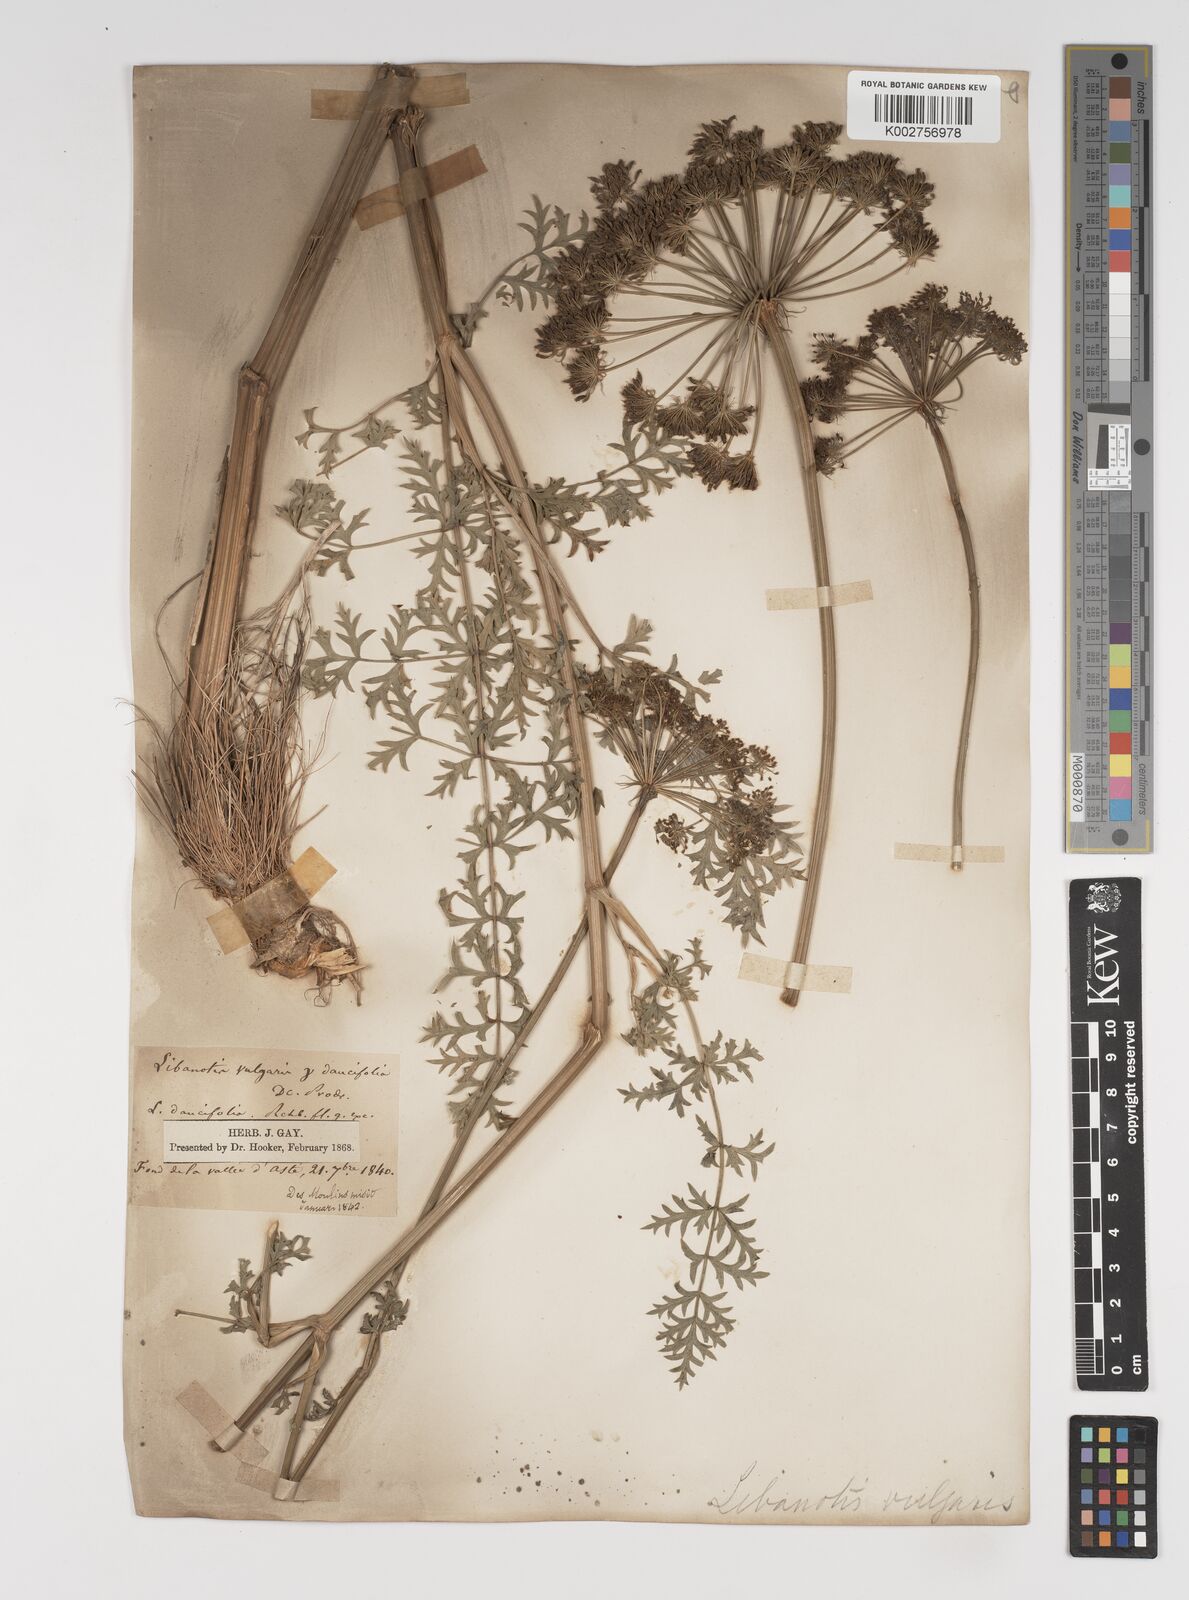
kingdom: Plantae
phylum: Tracheophyta
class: Magnoliopsida
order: Apiales
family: Apiaceae
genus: Seseli
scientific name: Seseli libanotis
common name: Mooncarrot
